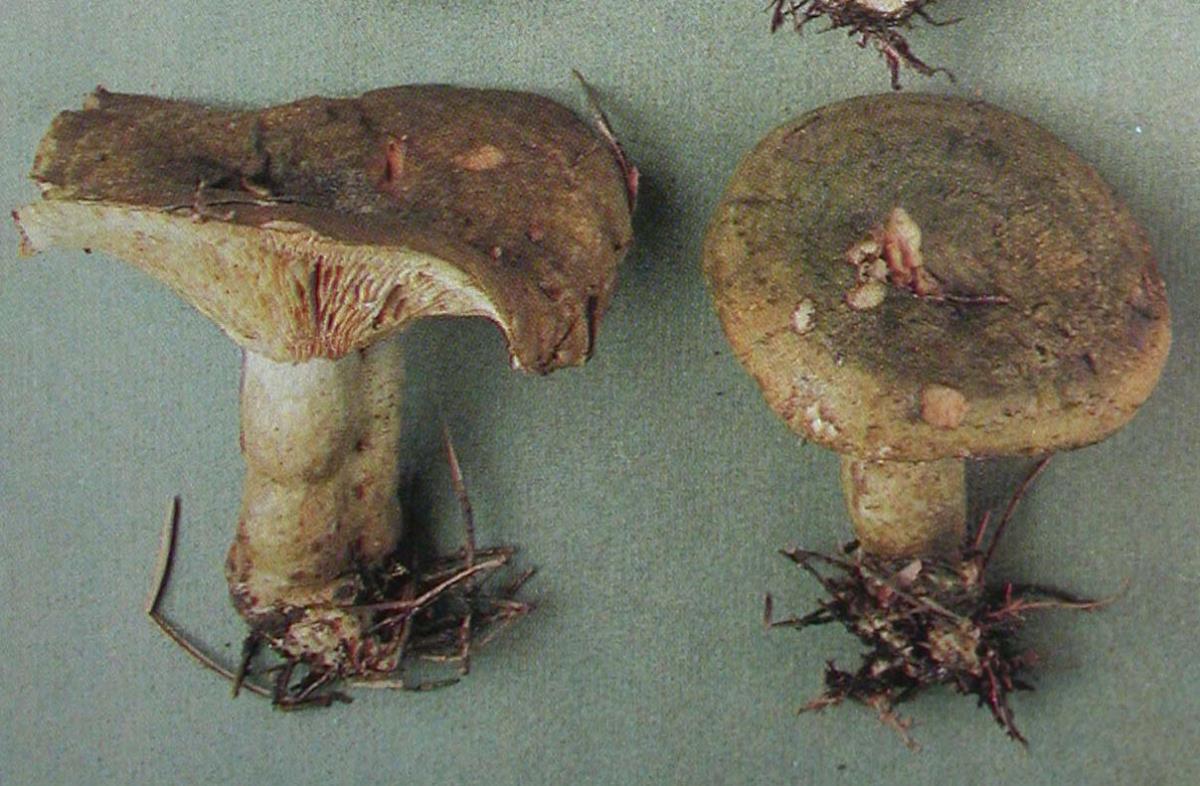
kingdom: Fungi
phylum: Basidiomycota
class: Agaricomycetes
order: Russulales
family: Russulaceae
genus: Lactarius
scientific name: Lactarius turpis
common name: Ugly milk-cap
